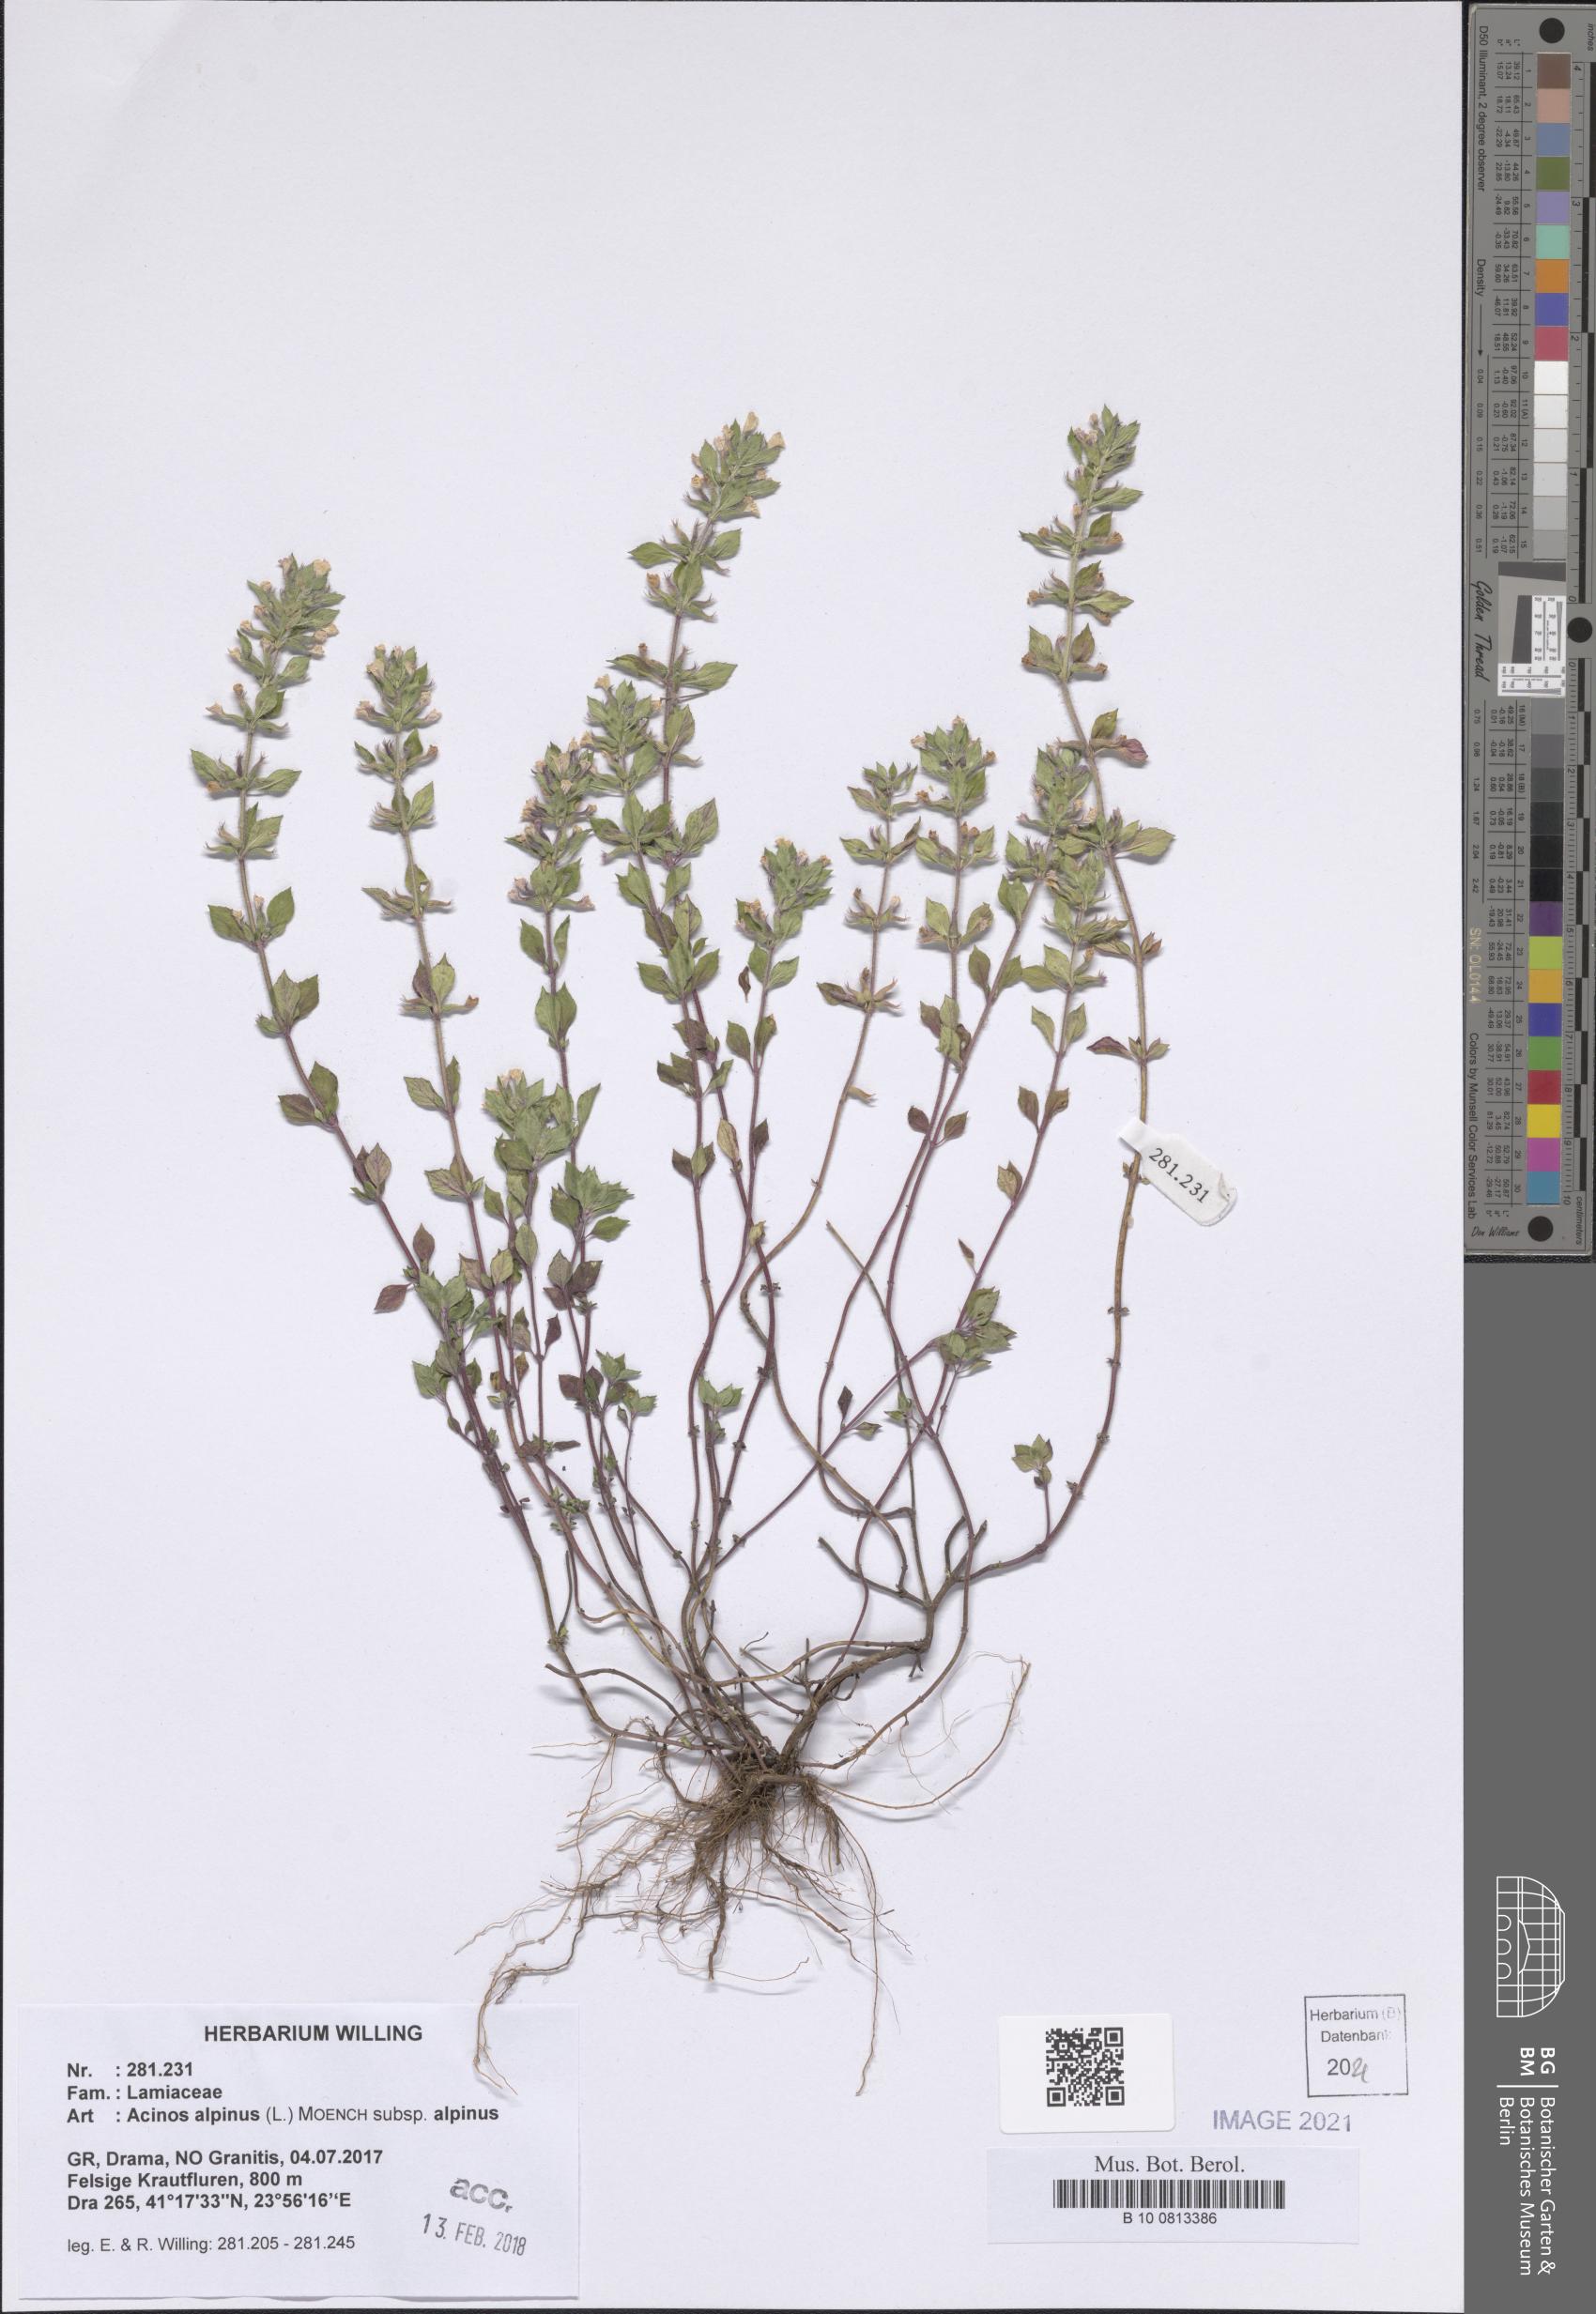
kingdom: Plantae
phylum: Tracheophyta
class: Magnoliopsida
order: Lamiales
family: Lamiaceae
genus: Clinopodium
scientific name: Clinopodium alpinum
